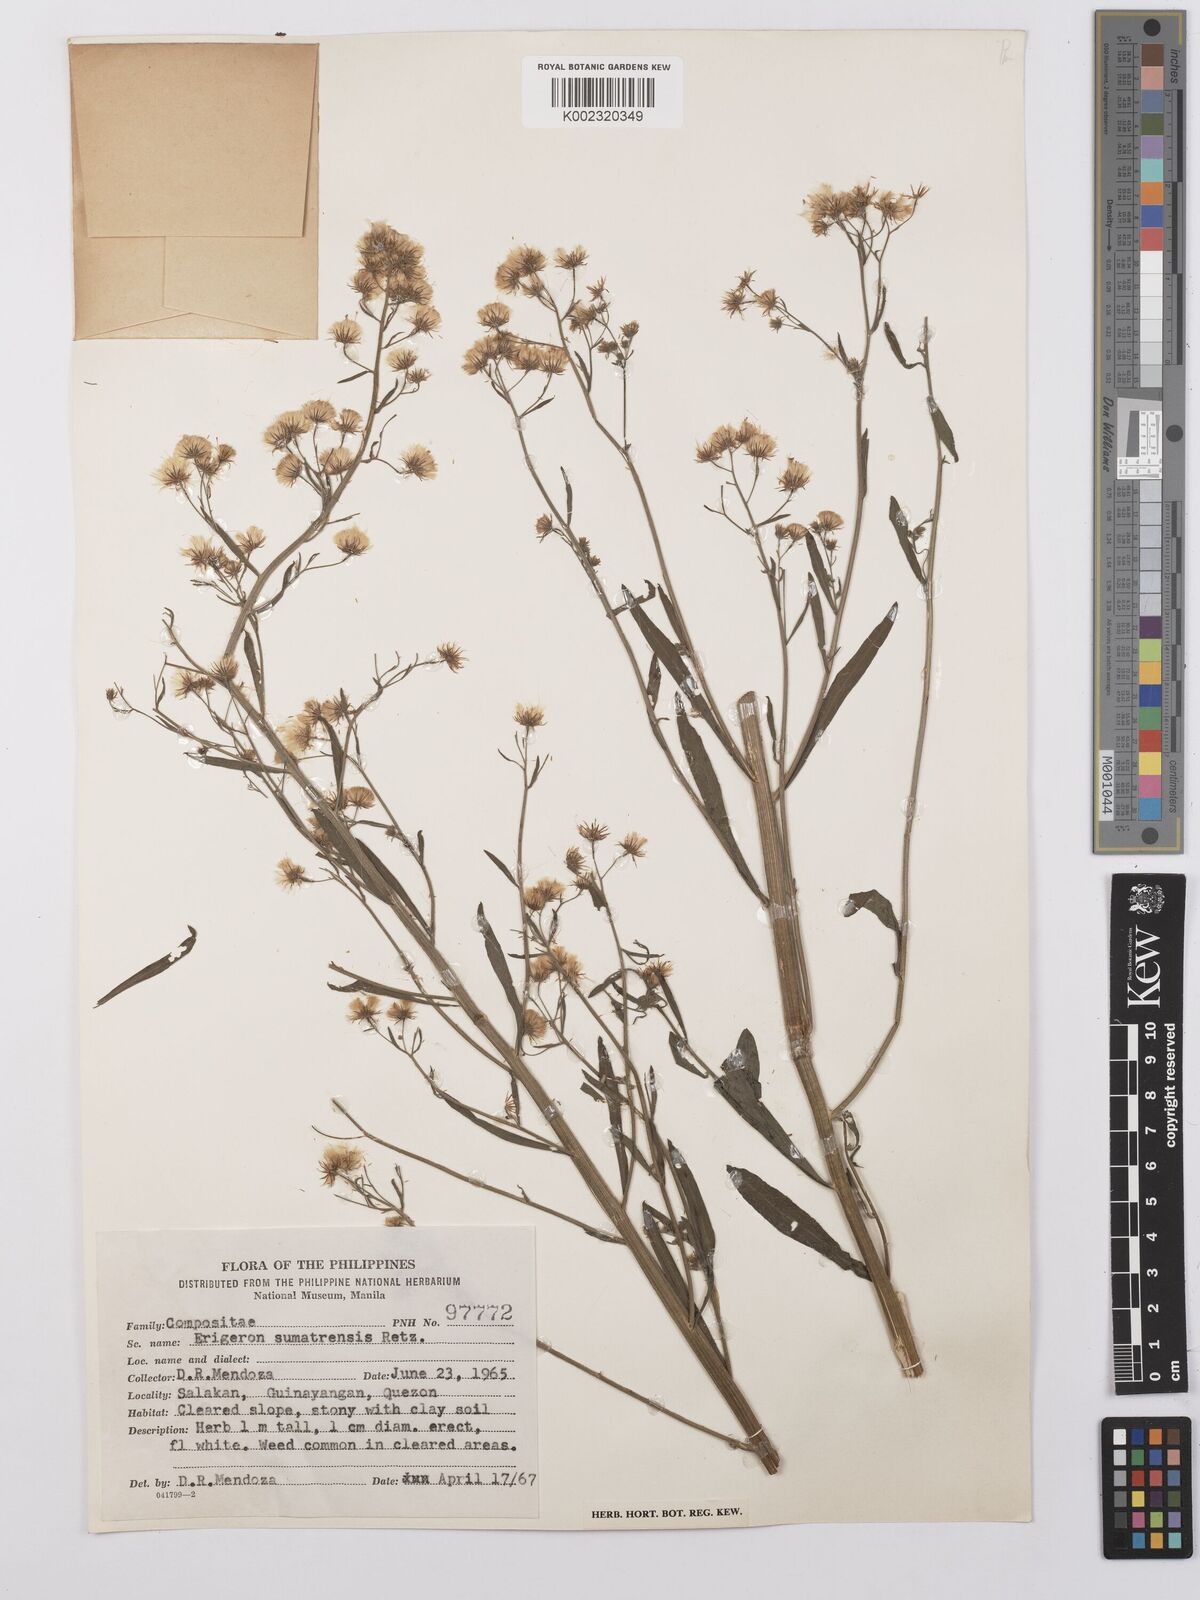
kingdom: Plantae
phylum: Tracheophyta
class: Magnoliopsida
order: Asterales
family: Asteraceae
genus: Erigeron
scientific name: Erigeron sumatrensis
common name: Daisy
